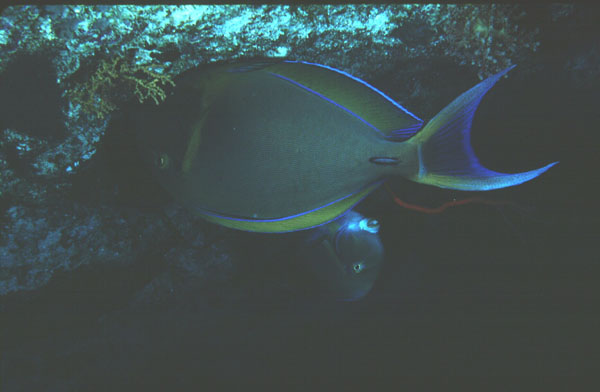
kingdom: Animalia
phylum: Chordata
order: Perciformes
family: Acanthuridae
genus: Acanthurus
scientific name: Acanthurus bariene
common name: Bariene surgeonfish
